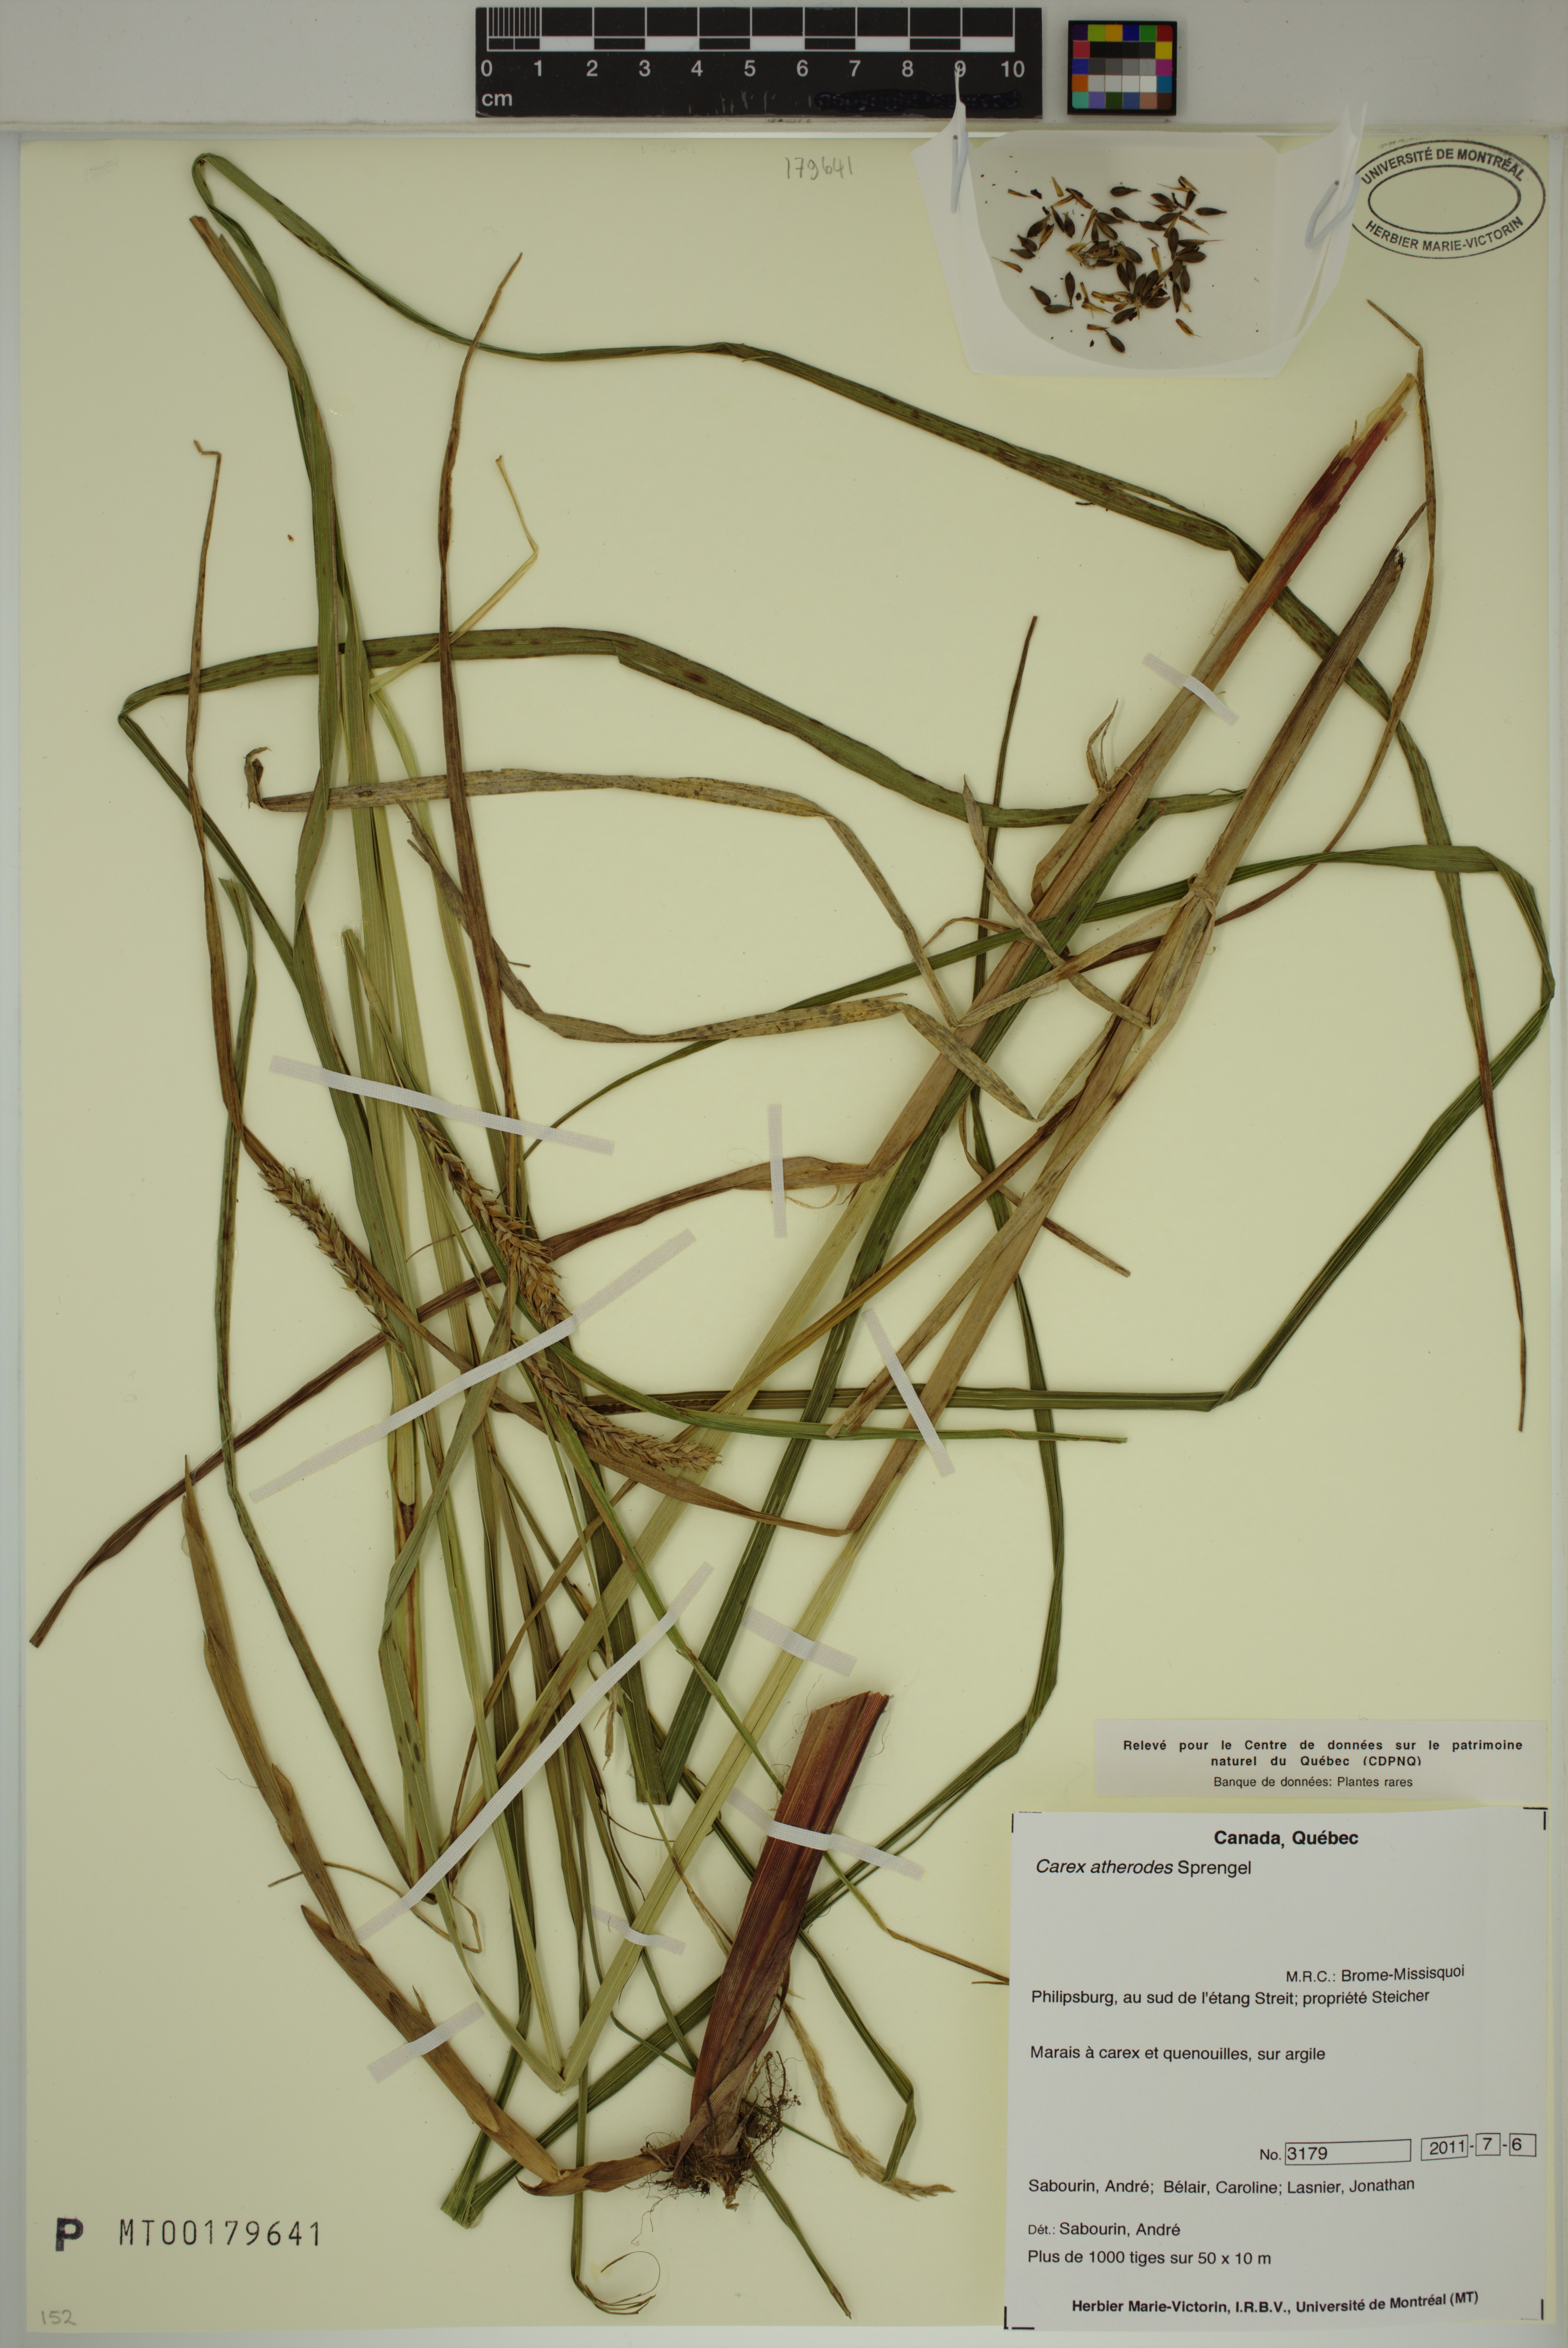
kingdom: Plantae
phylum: Tracheophyta
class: Liliopsida
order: Poales
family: Cyperaceae
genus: Carex
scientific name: Carex atherodes
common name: Wheat sedge
